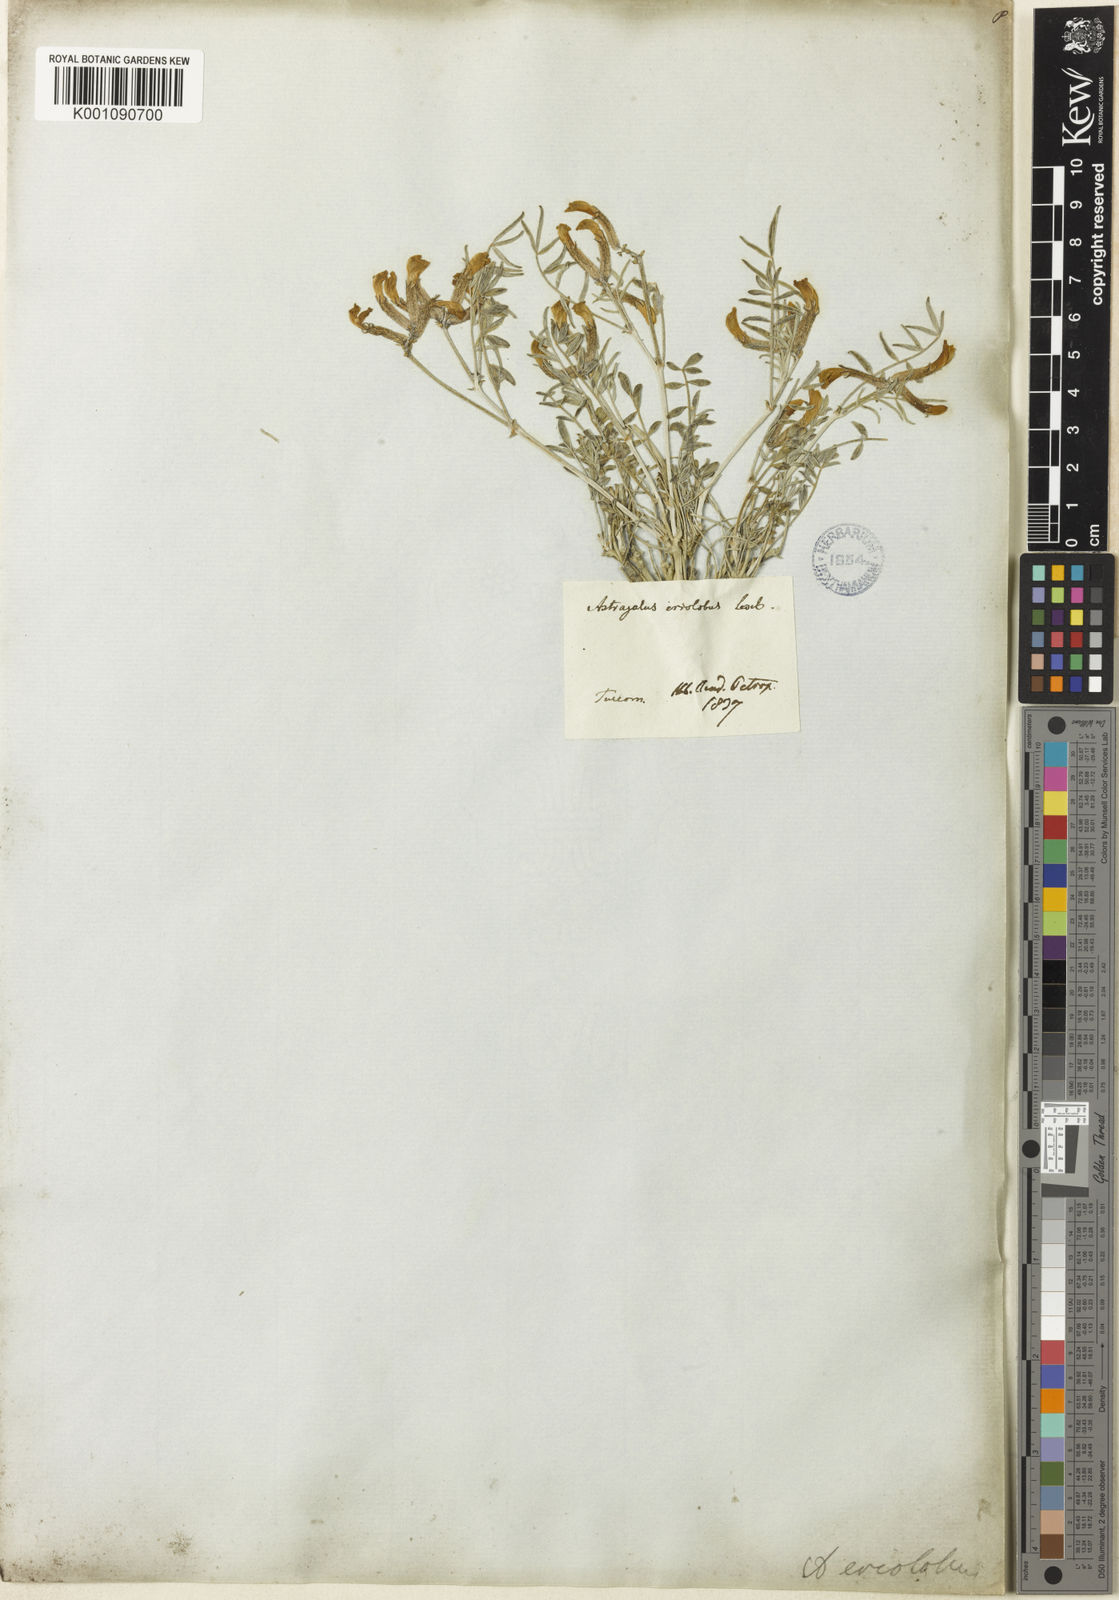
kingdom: Plantae
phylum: Tracheophyta
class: Magnoliopsida
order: Fabales
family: Fabaceae
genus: Astragalus
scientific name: Astragalus
